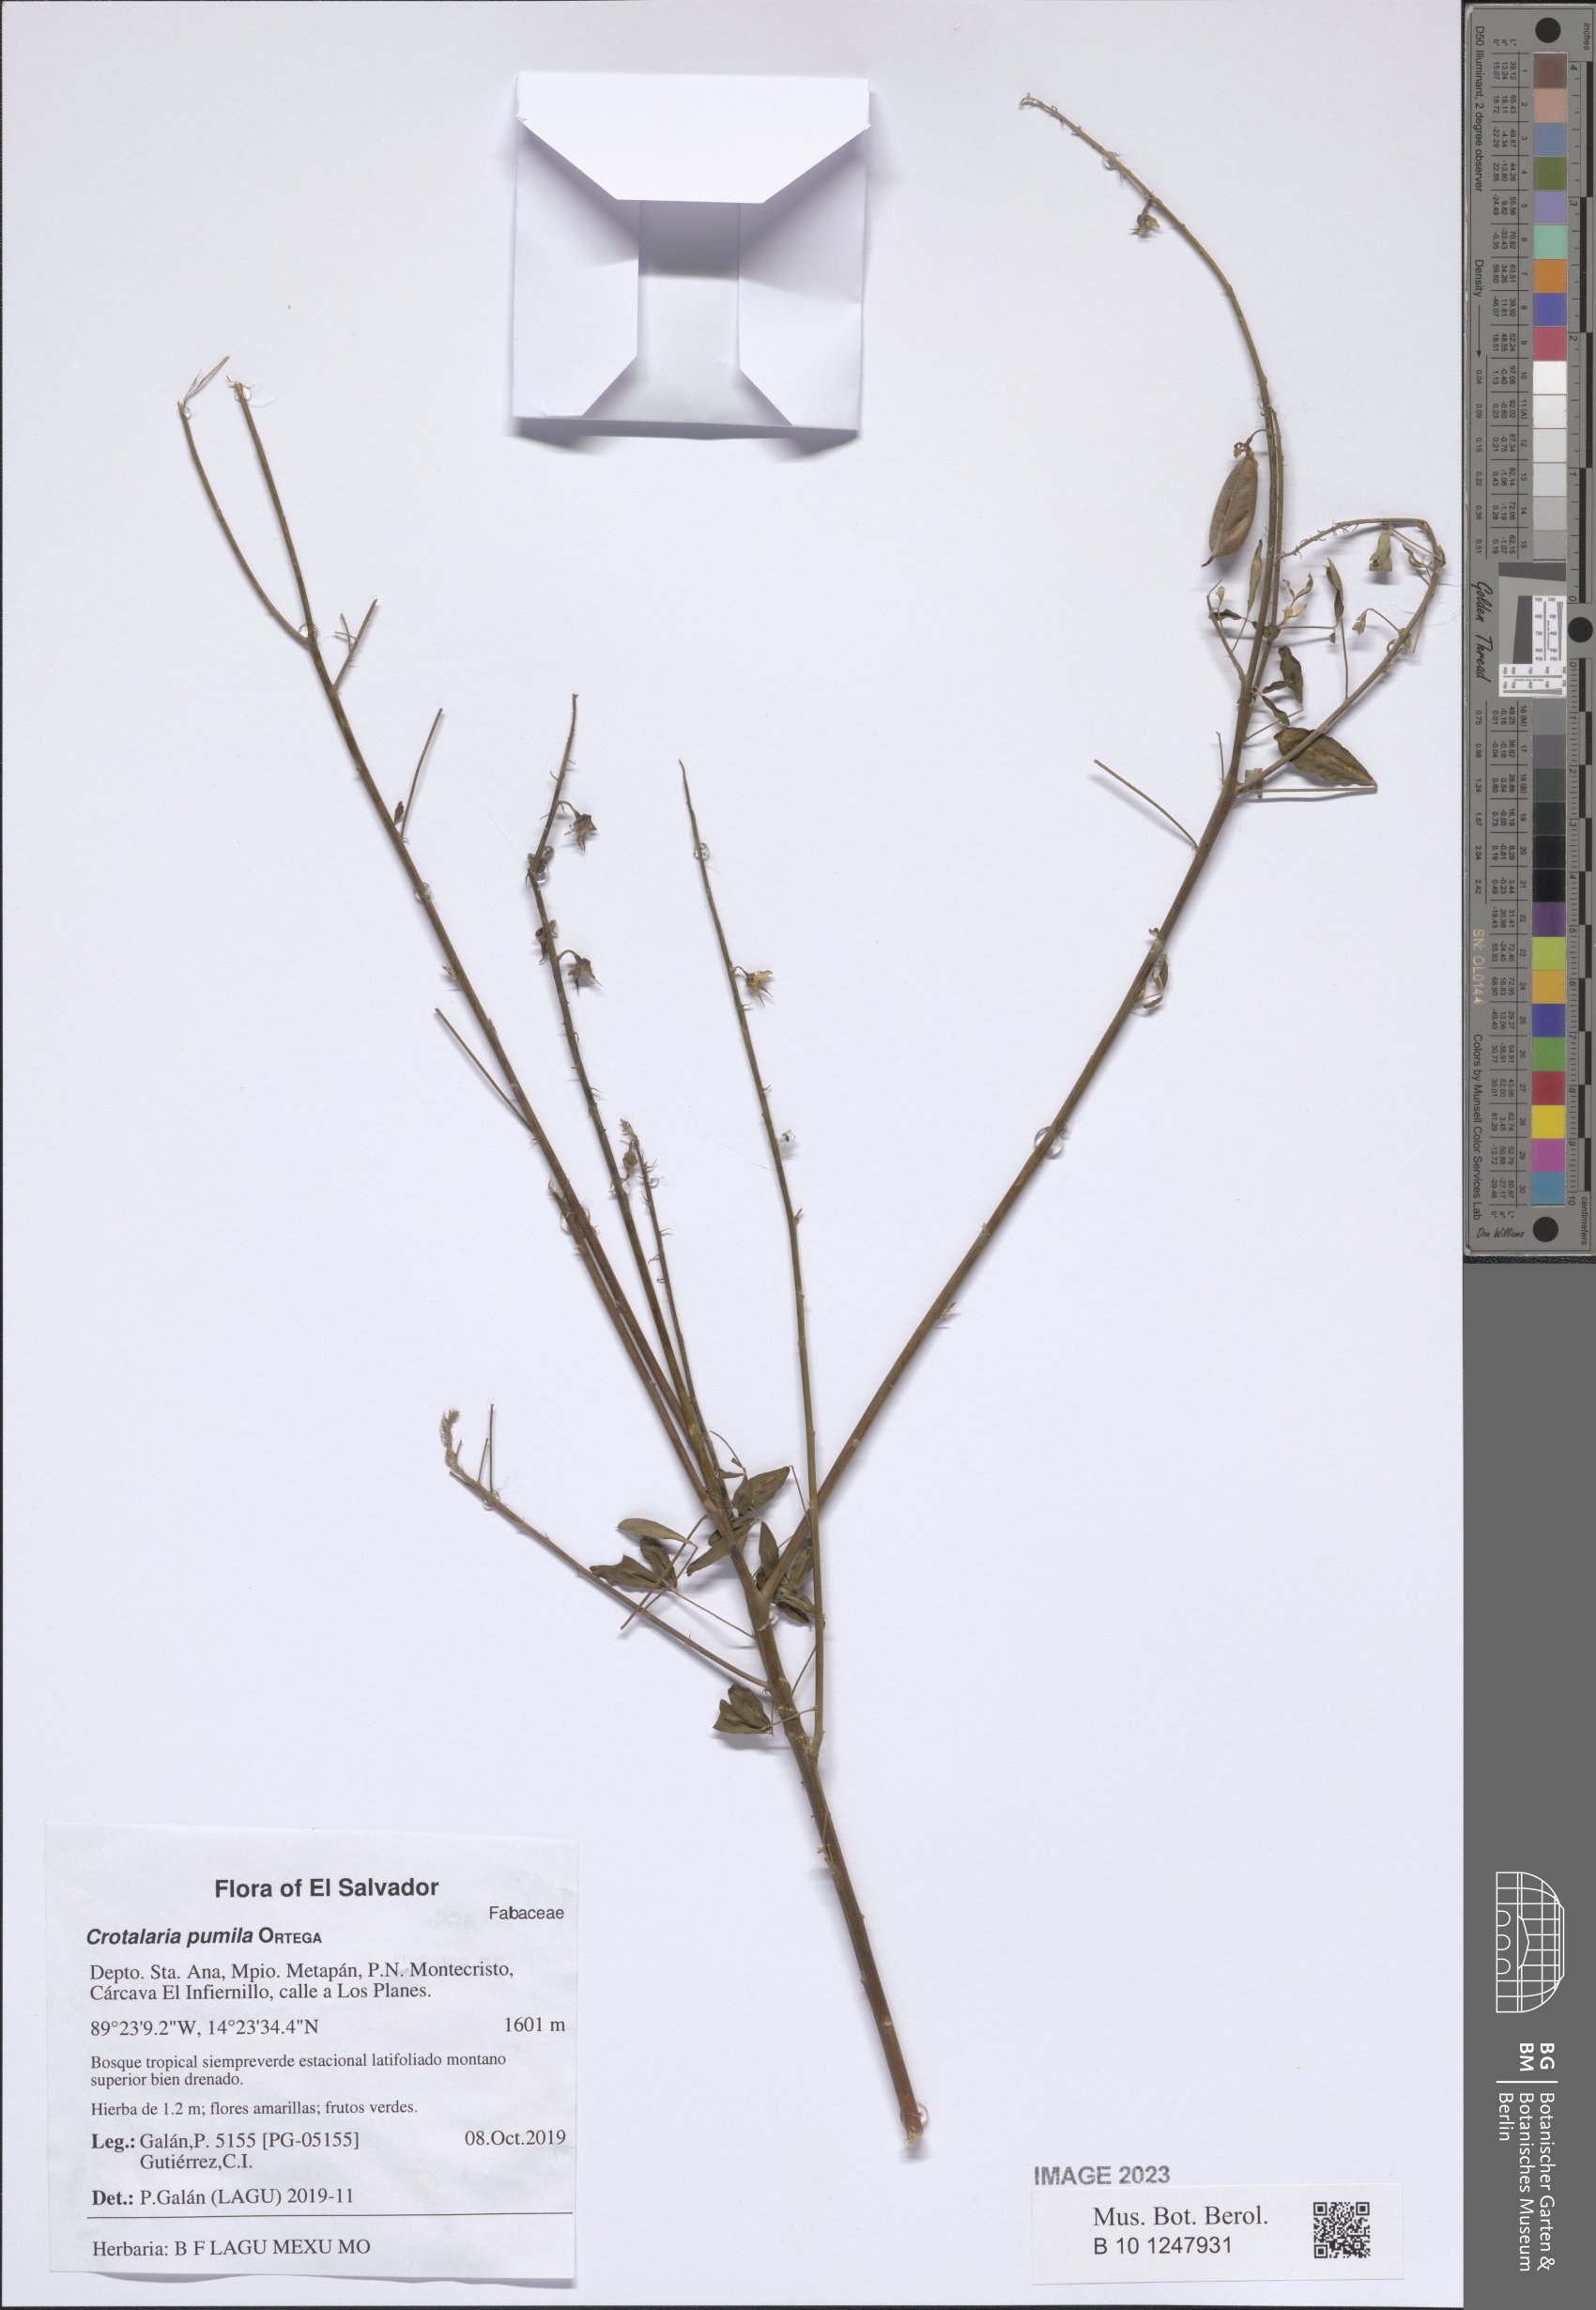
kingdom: Plantae
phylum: Tracheophyta
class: Magnoliopsida
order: Fabales
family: Fabaceae
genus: Crotalaria
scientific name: Crotalaria pumila
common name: Low rattlebox
